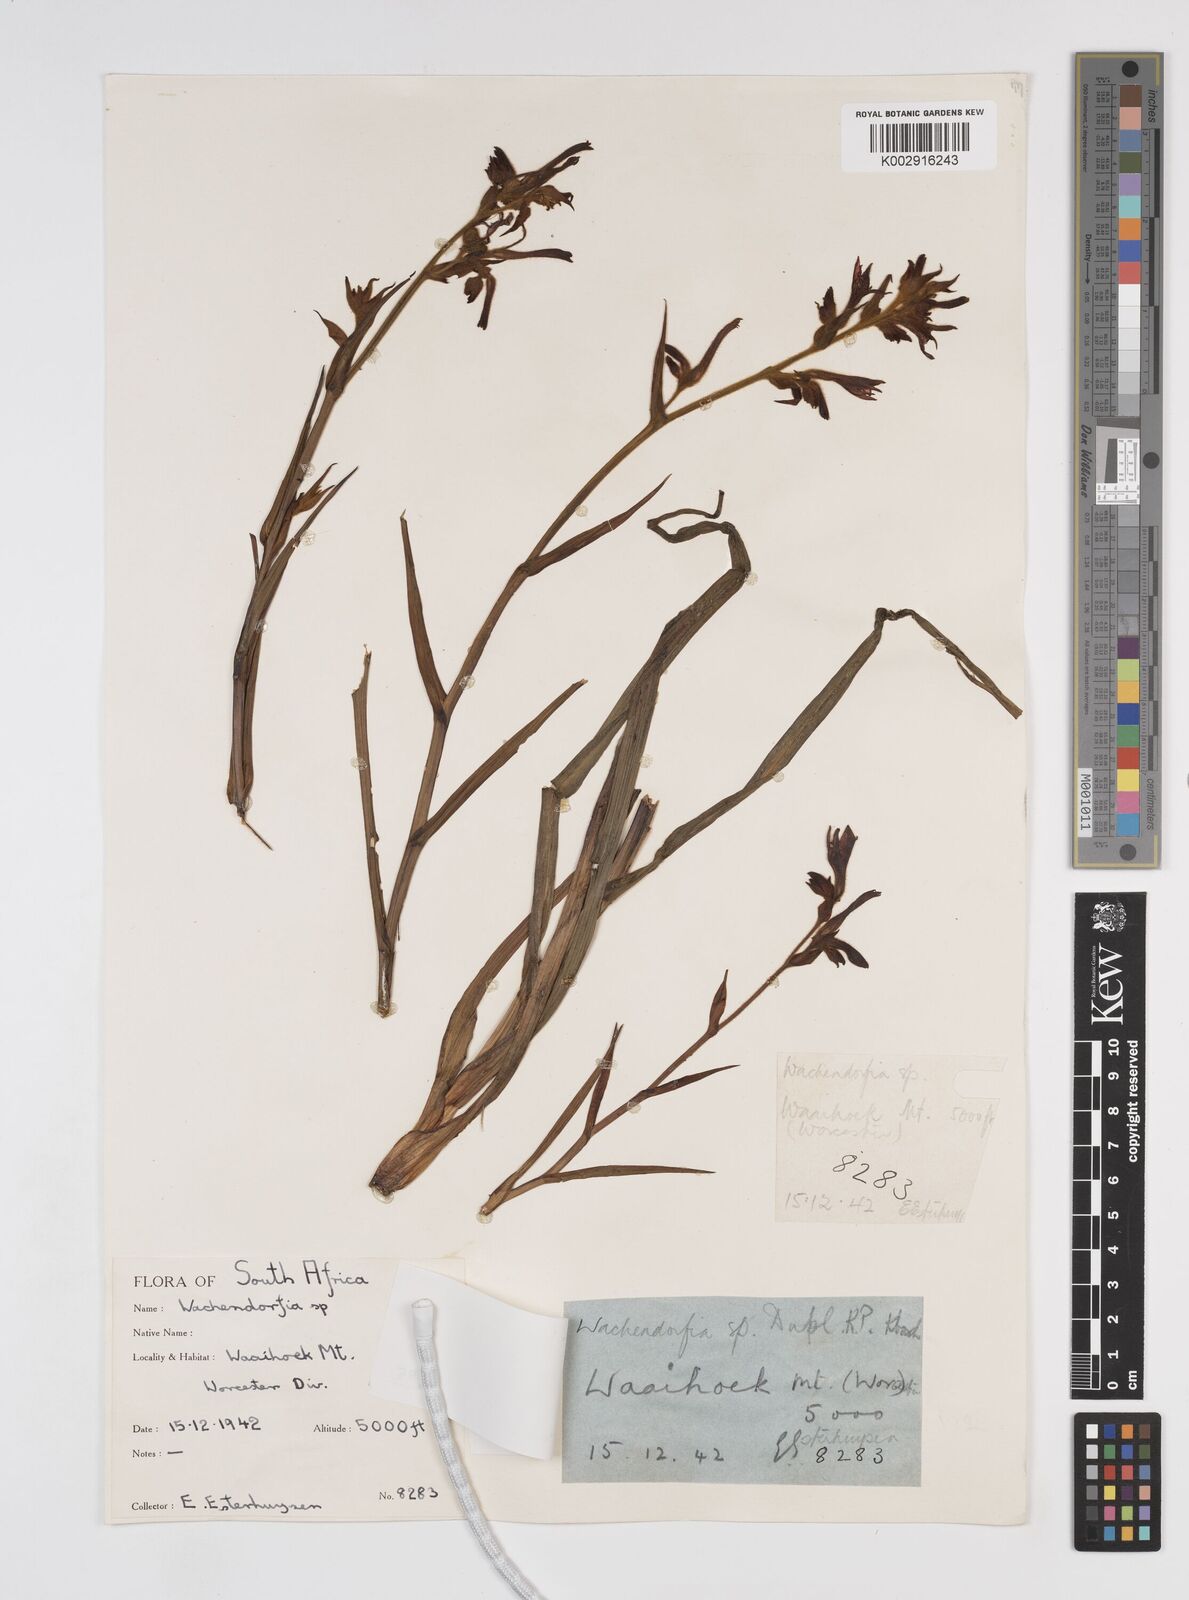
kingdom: Plantae
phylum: Tracheophyta
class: Liliopsida
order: Commelinales
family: Haemodoraceae
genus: Wachendorfia
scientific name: Wachendorfia paniculata
